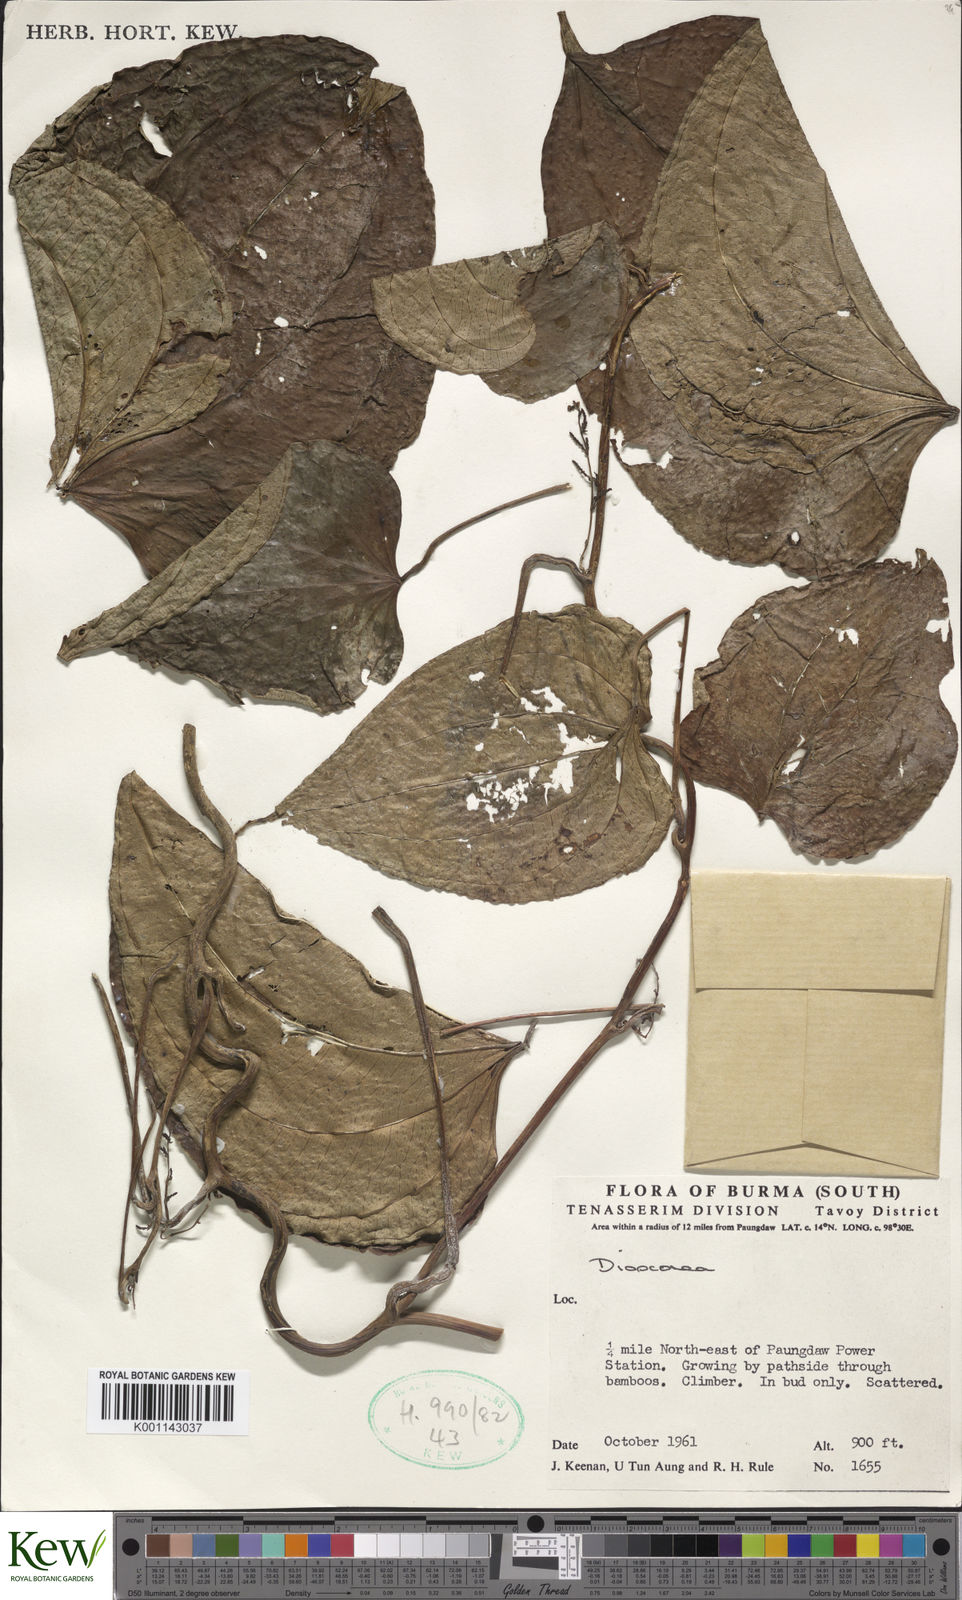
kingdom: Plantae
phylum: Tracheophyta
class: Liliopsida
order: Dioscoreales
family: Dioscoreaceae
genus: Dioscorea
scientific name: Dioscorea
